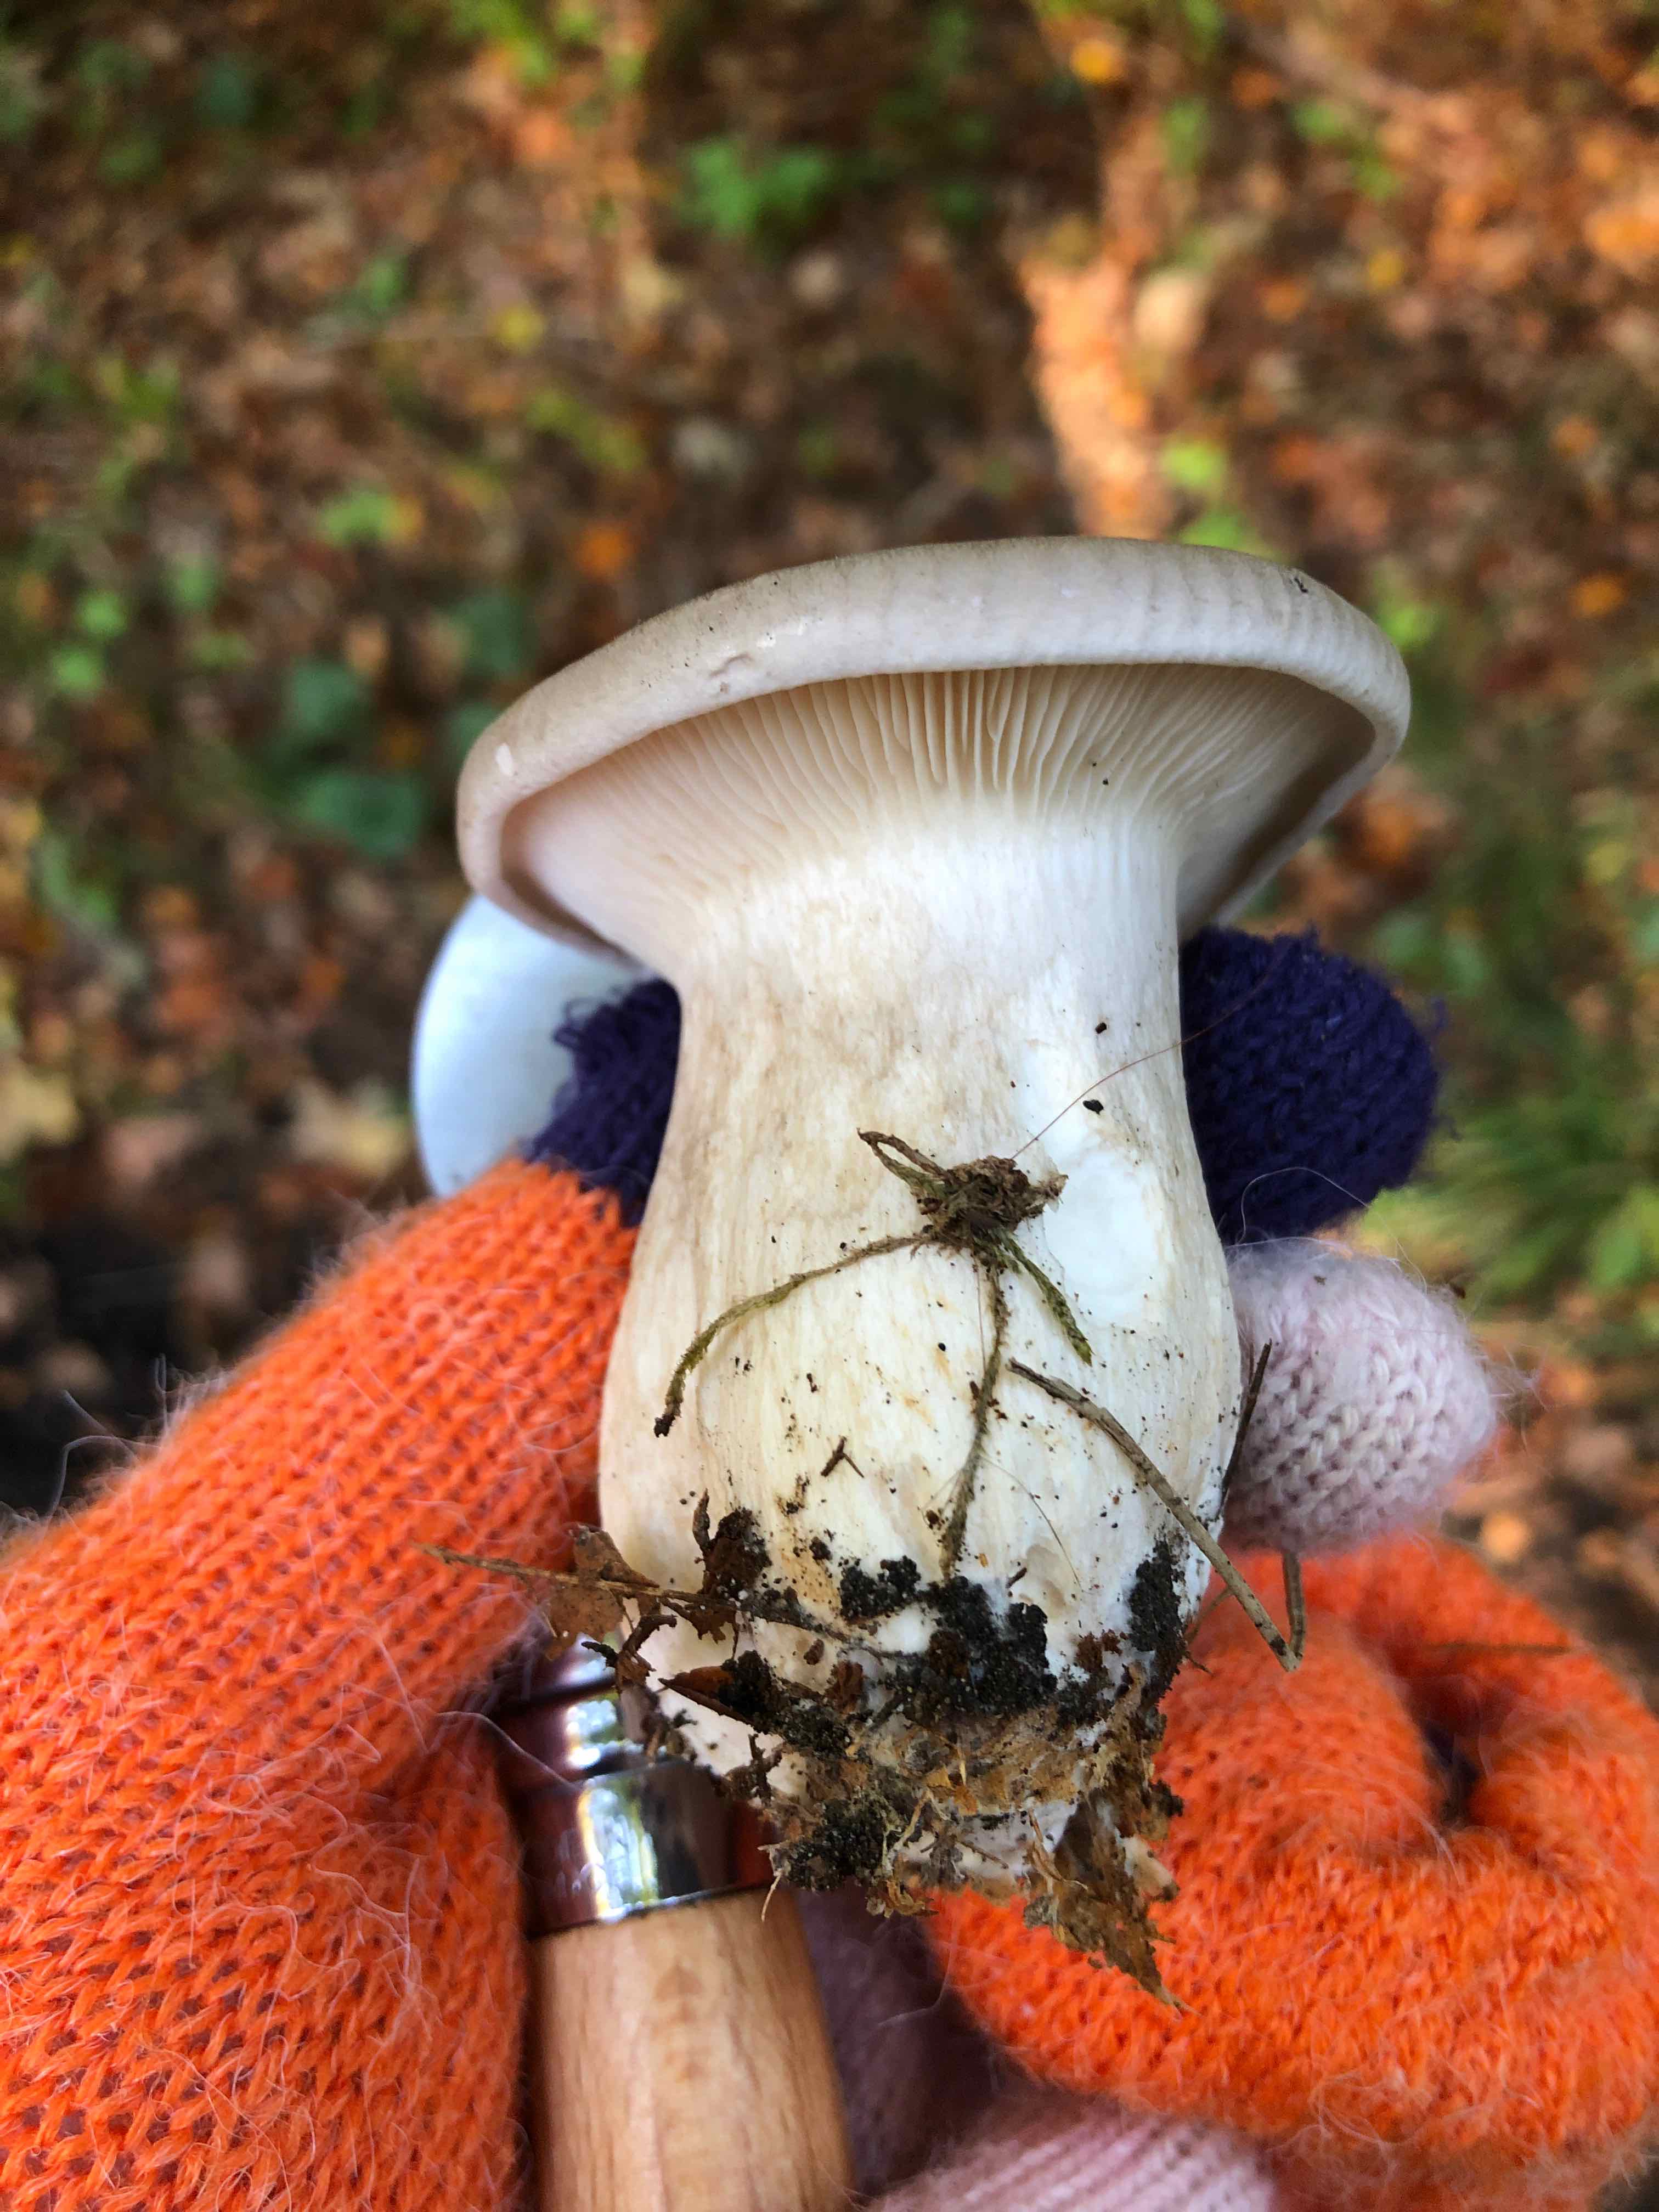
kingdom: Fungi
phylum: Basidiomycota
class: Agaricomycetes
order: Agaricales
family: Tricholomataceae
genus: Clitocybe
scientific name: Clitocybe nebularis
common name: tåge-tragthat
